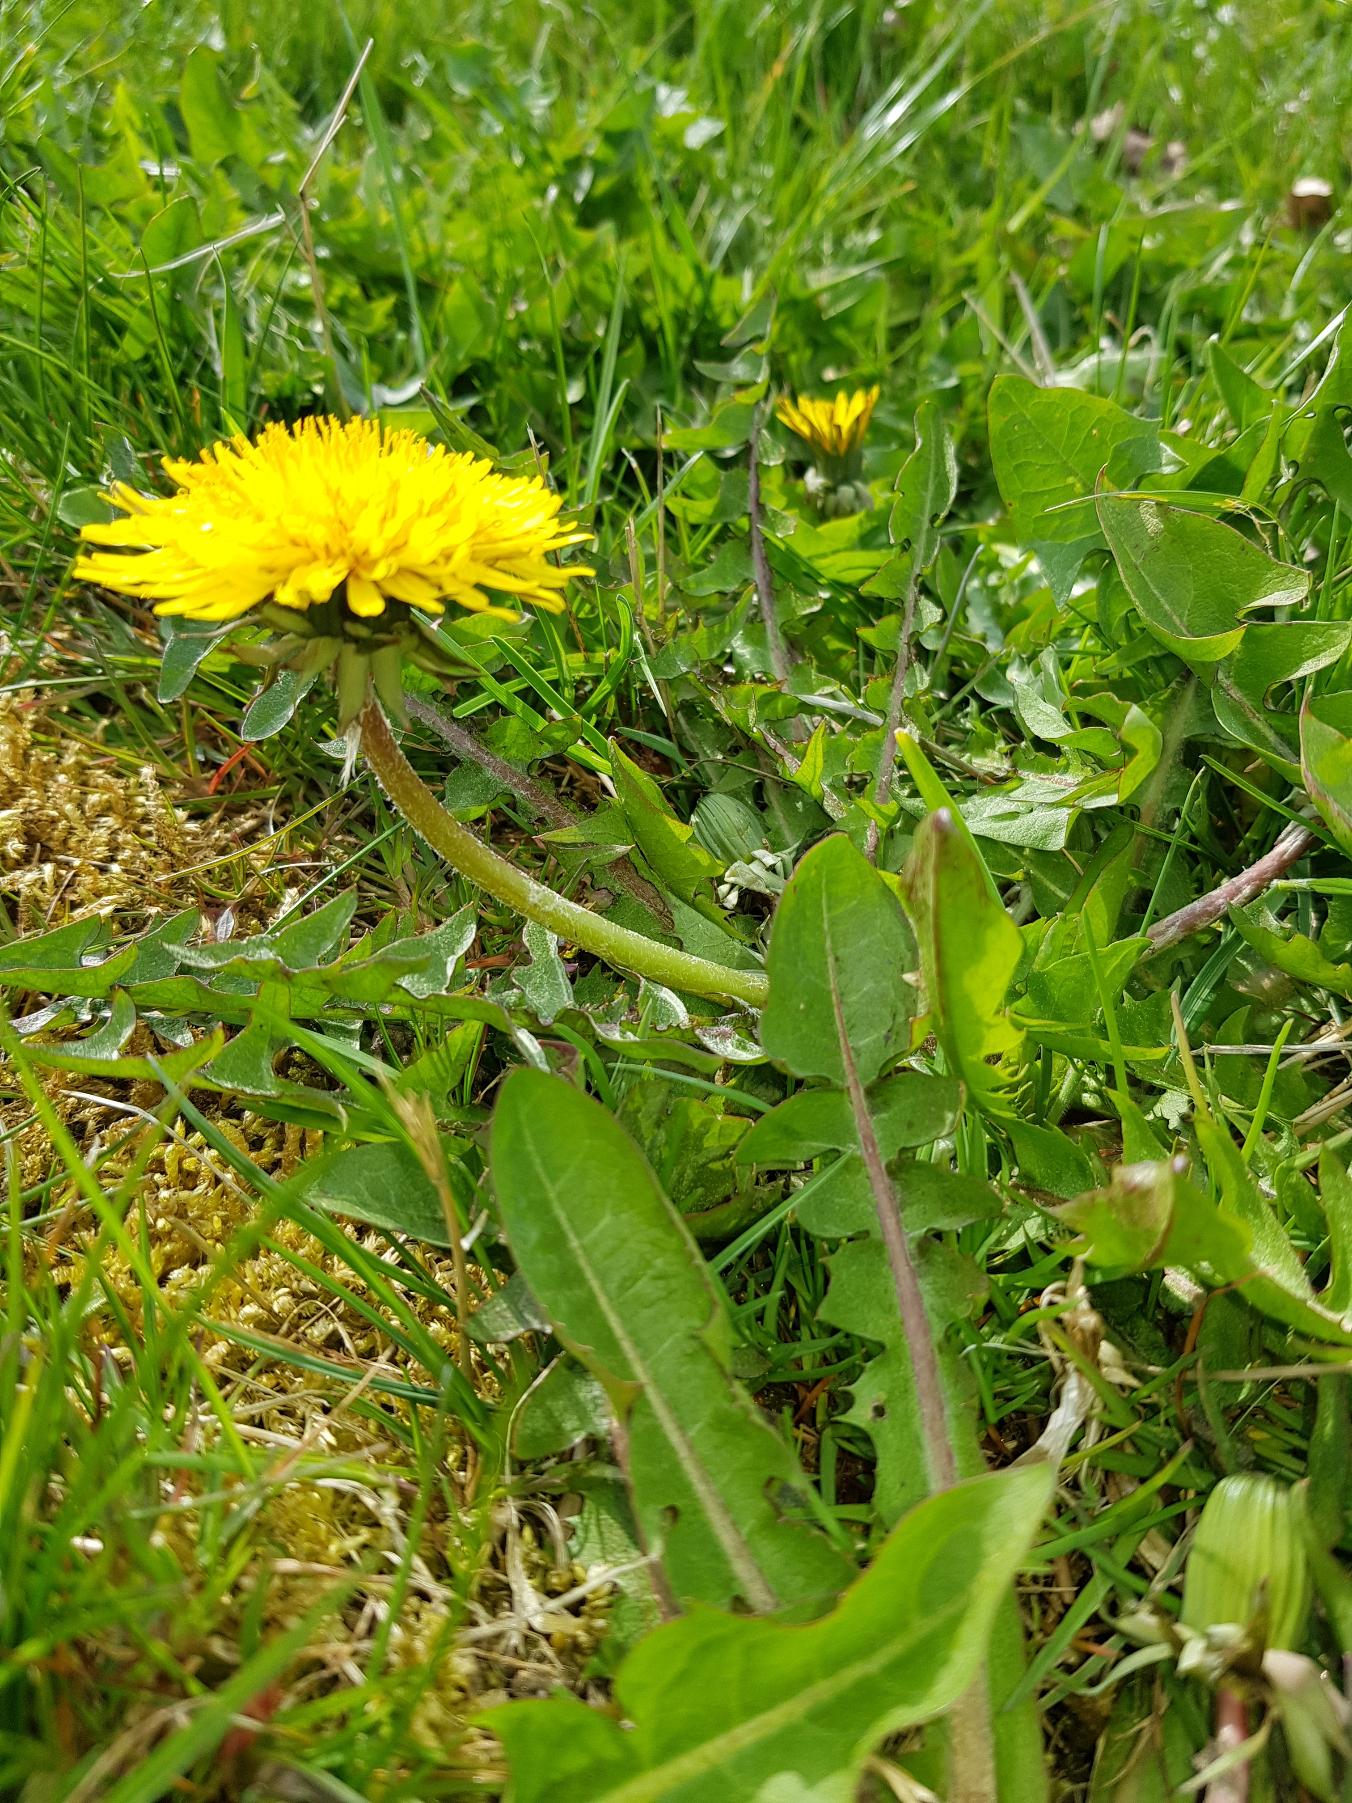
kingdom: Plantae
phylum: Tracheophyta
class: Magnoliopsida
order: Asterales
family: Asteraceae
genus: Taraxacum
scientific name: Taraxacum
